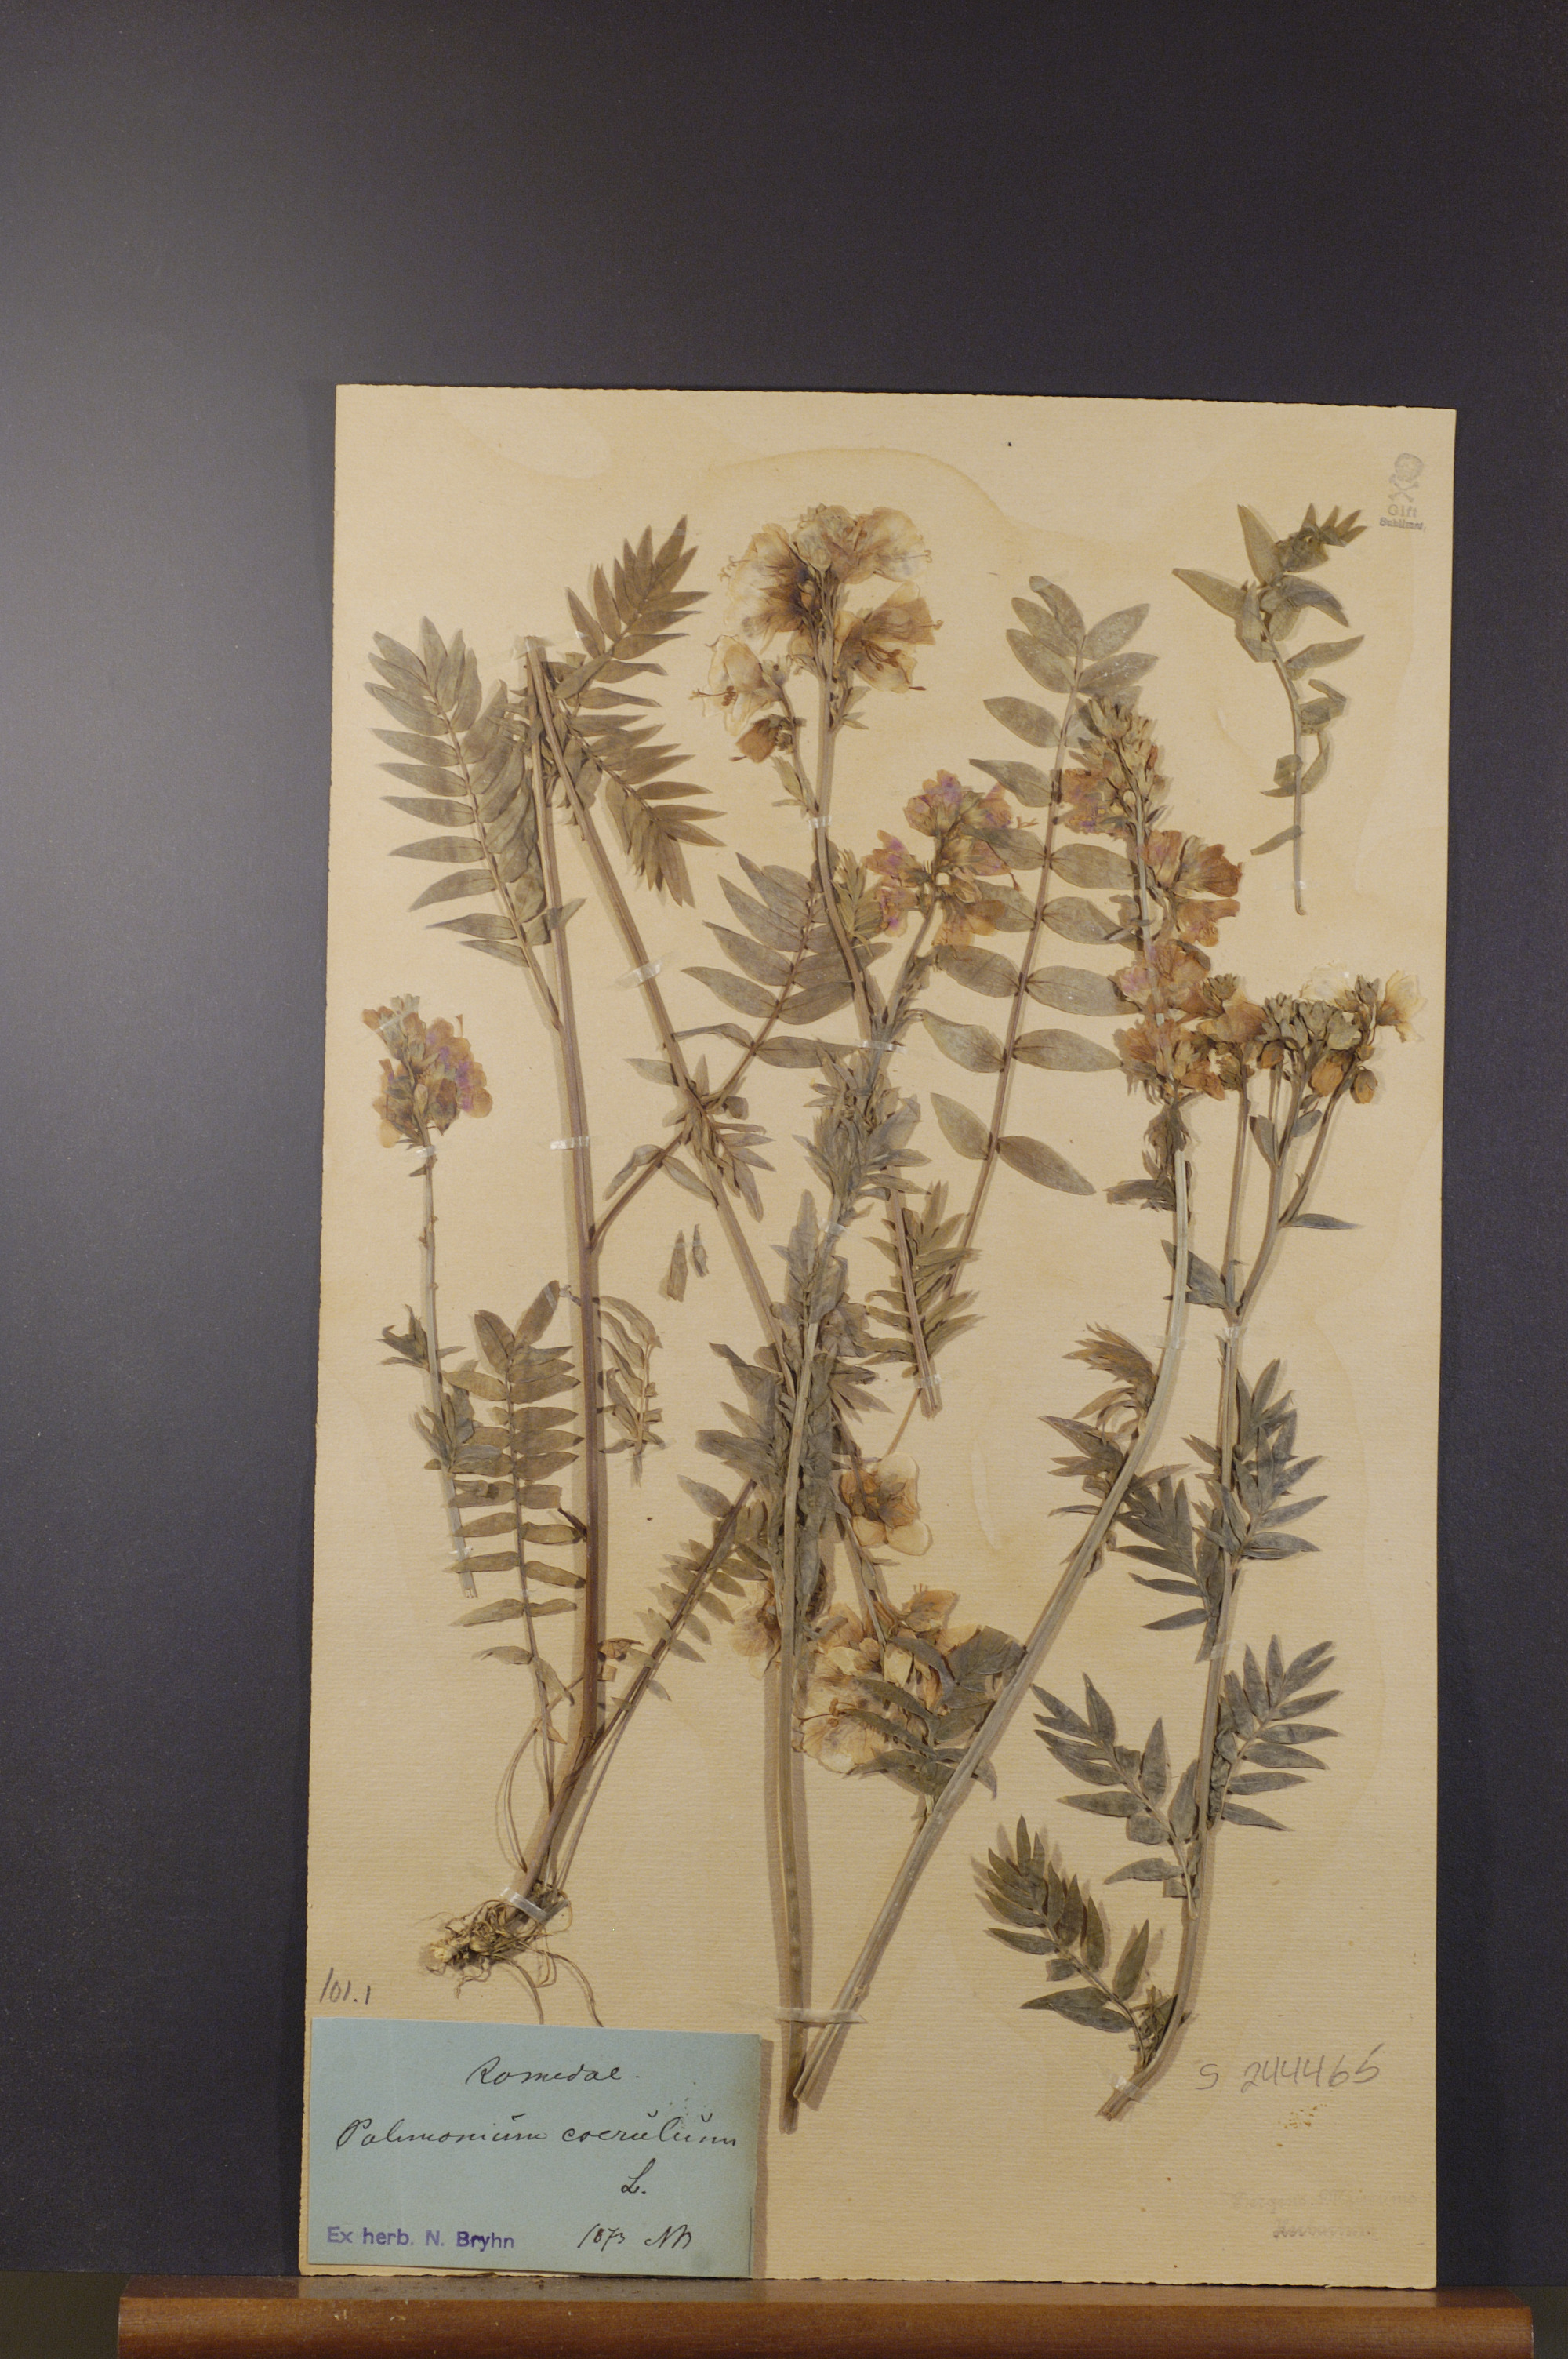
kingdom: Plantae
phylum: Tracheophyta
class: Magnoliopsida
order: Ericales
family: Polemoniaceae
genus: Polemonium
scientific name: Polemonium caeruleum
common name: Jacob's-ladder
